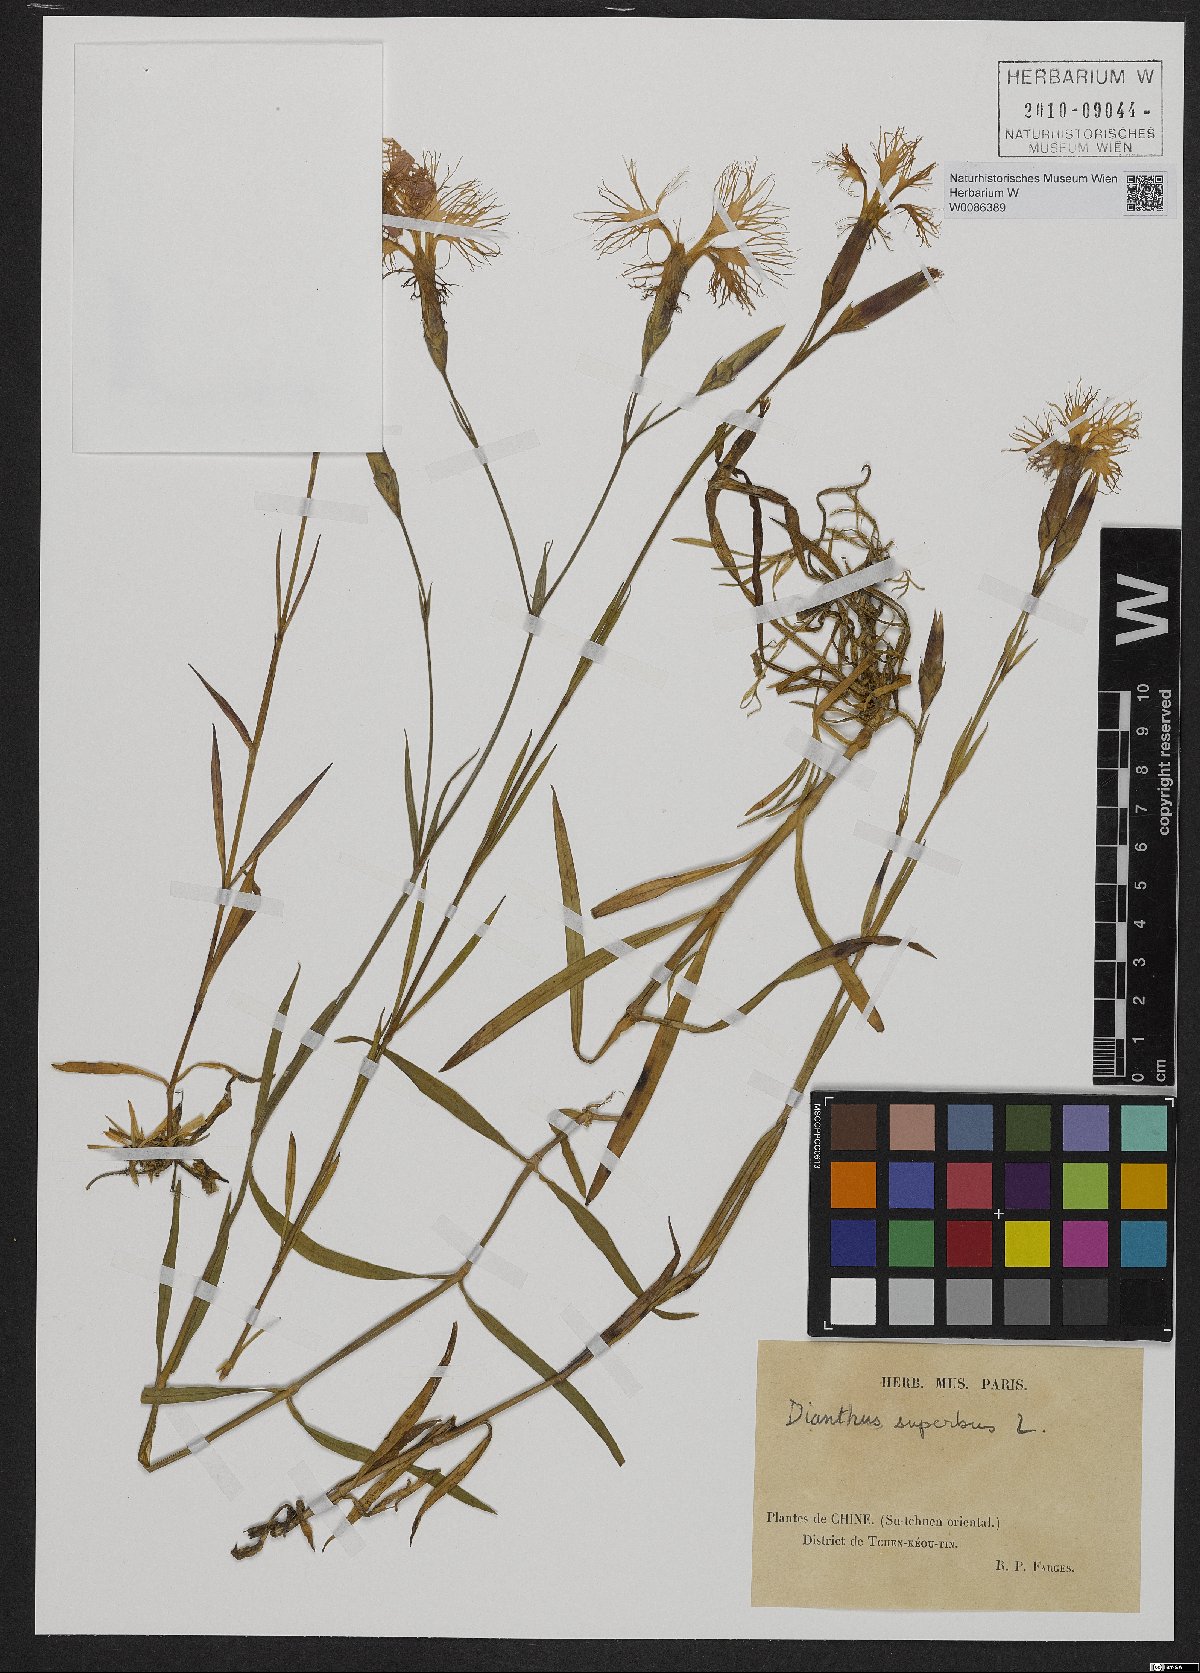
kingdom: Plantae
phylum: Tracheophyta
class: Magnoliopsida
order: Caryophyllales
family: Caryophyllaceae
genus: Dianthus
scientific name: Dianthus superbus
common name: Fringed pink
